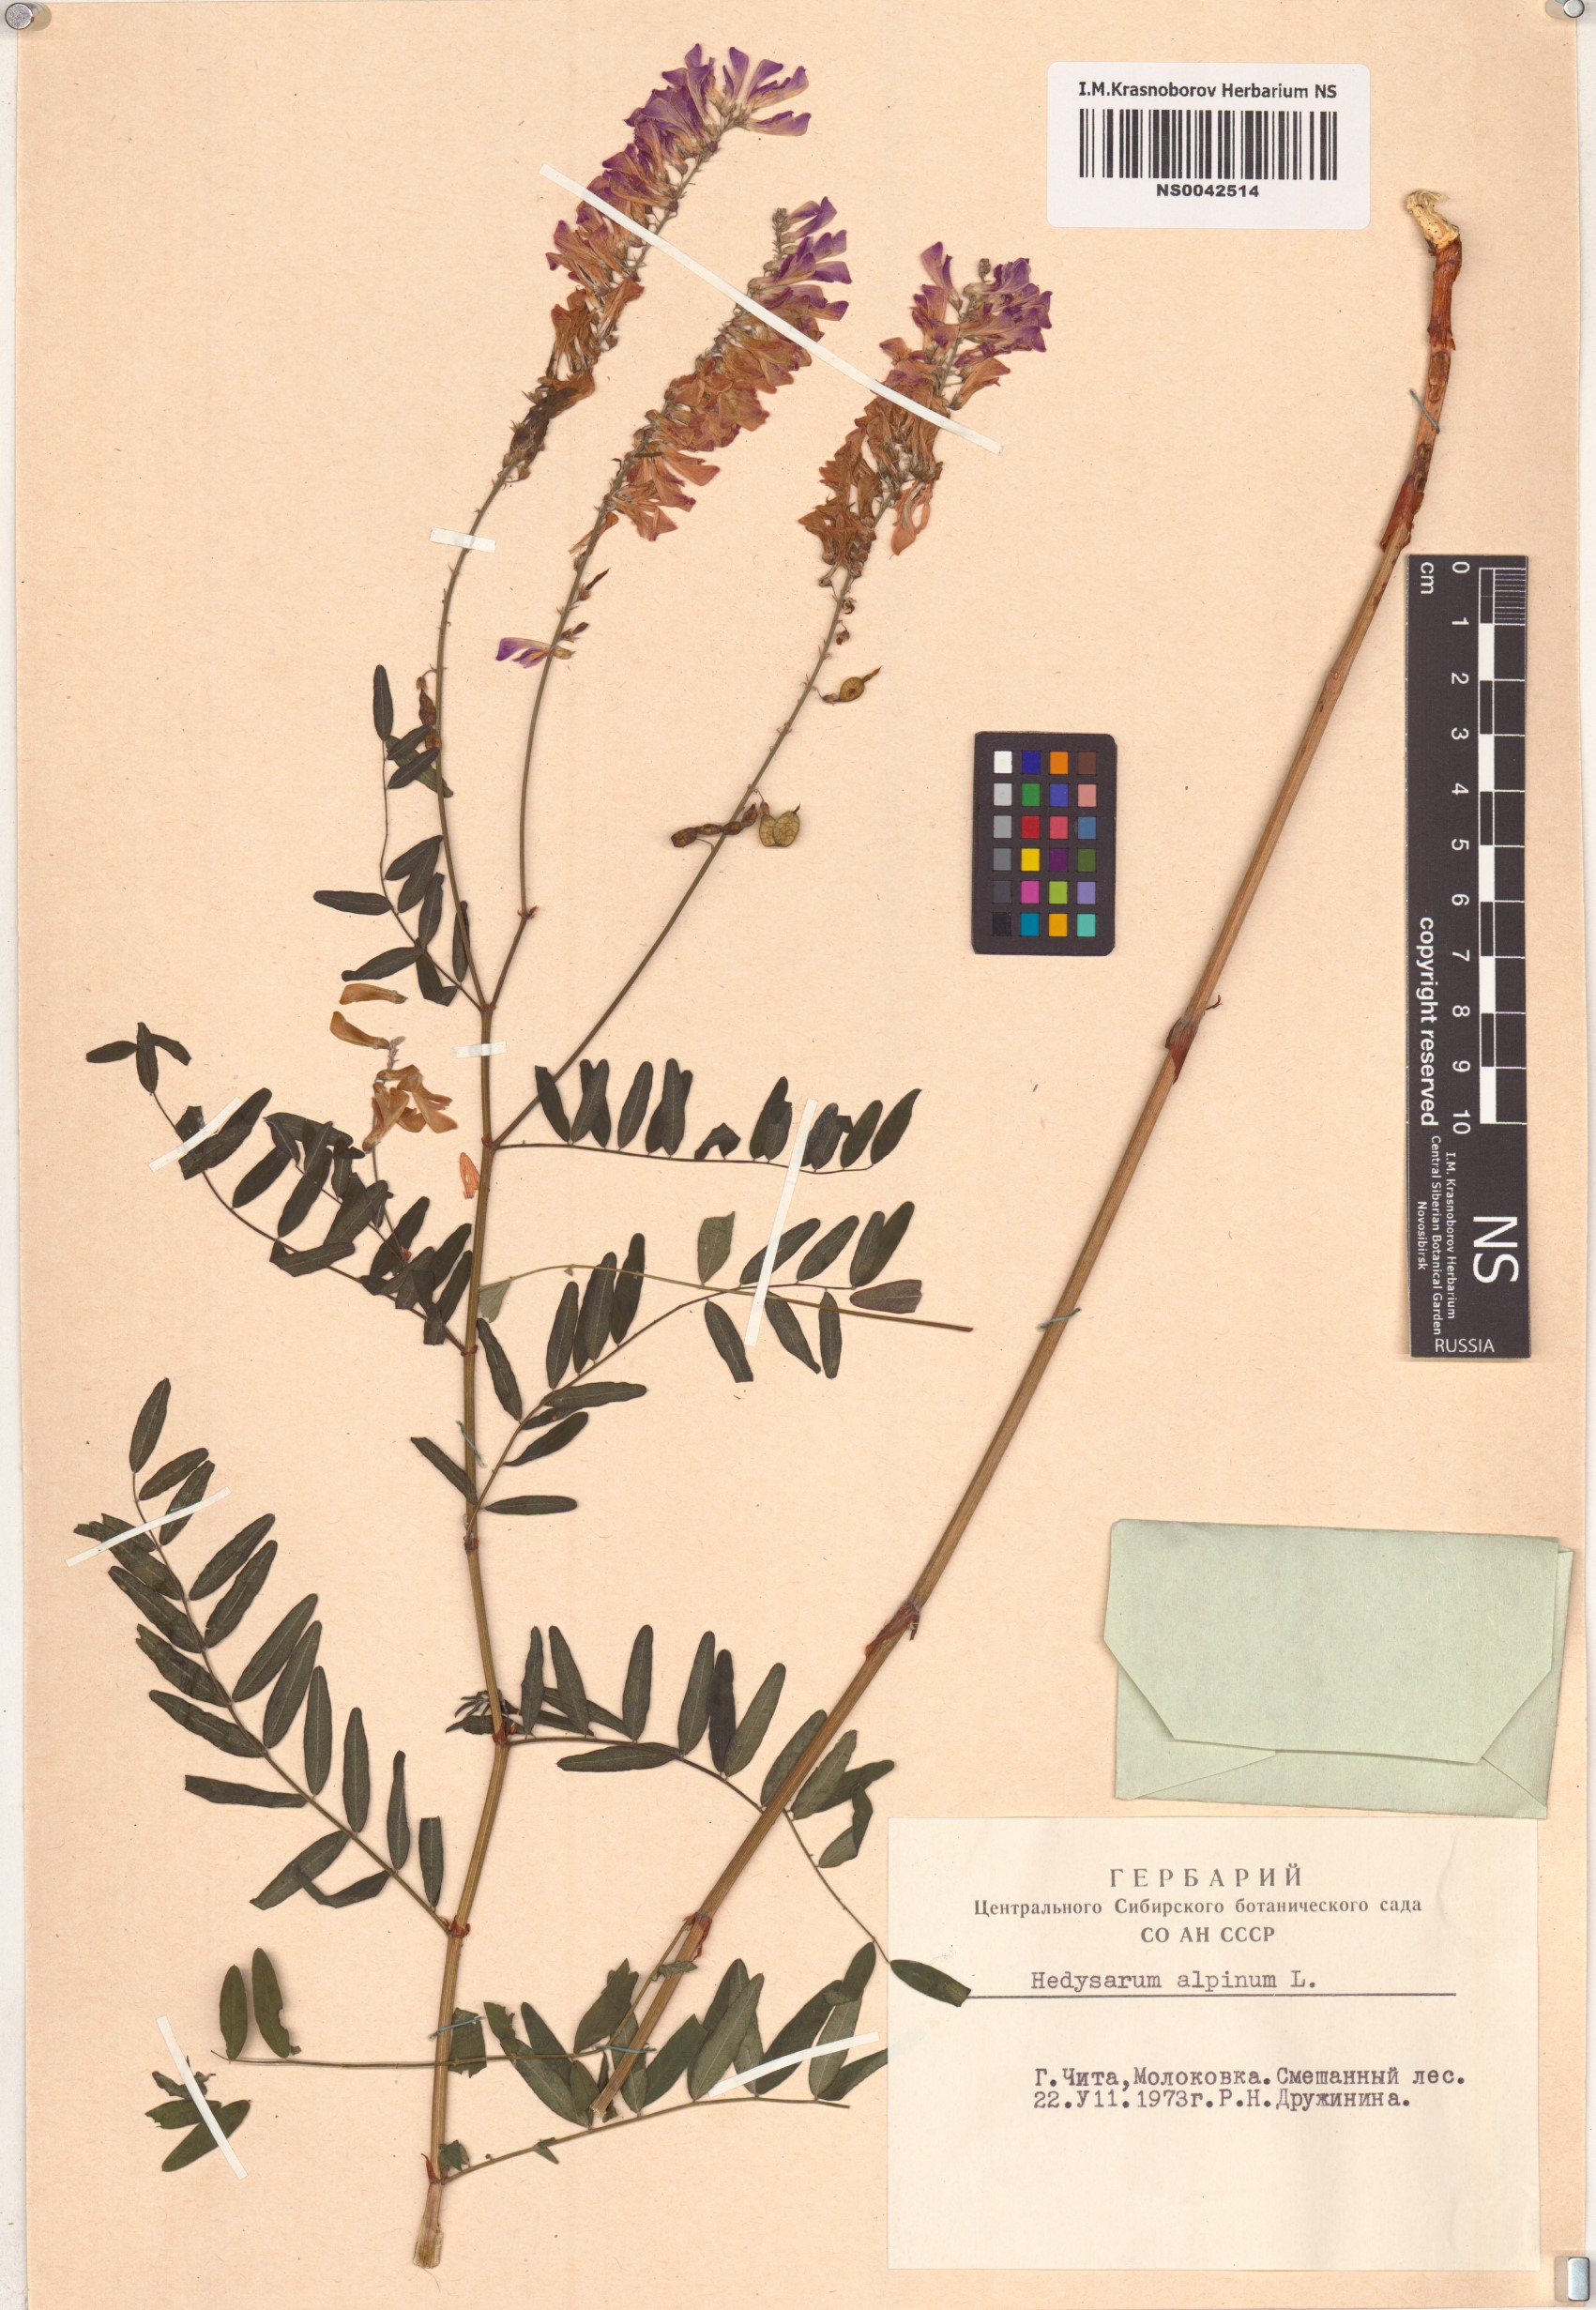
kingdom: Plantae
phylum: Tracheophyta
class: Magnoliopsida
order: Fabales
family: Fabaceae
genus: Hedysarum
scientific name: Hedysarum alpinum
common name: Alpine sweet-vetch
